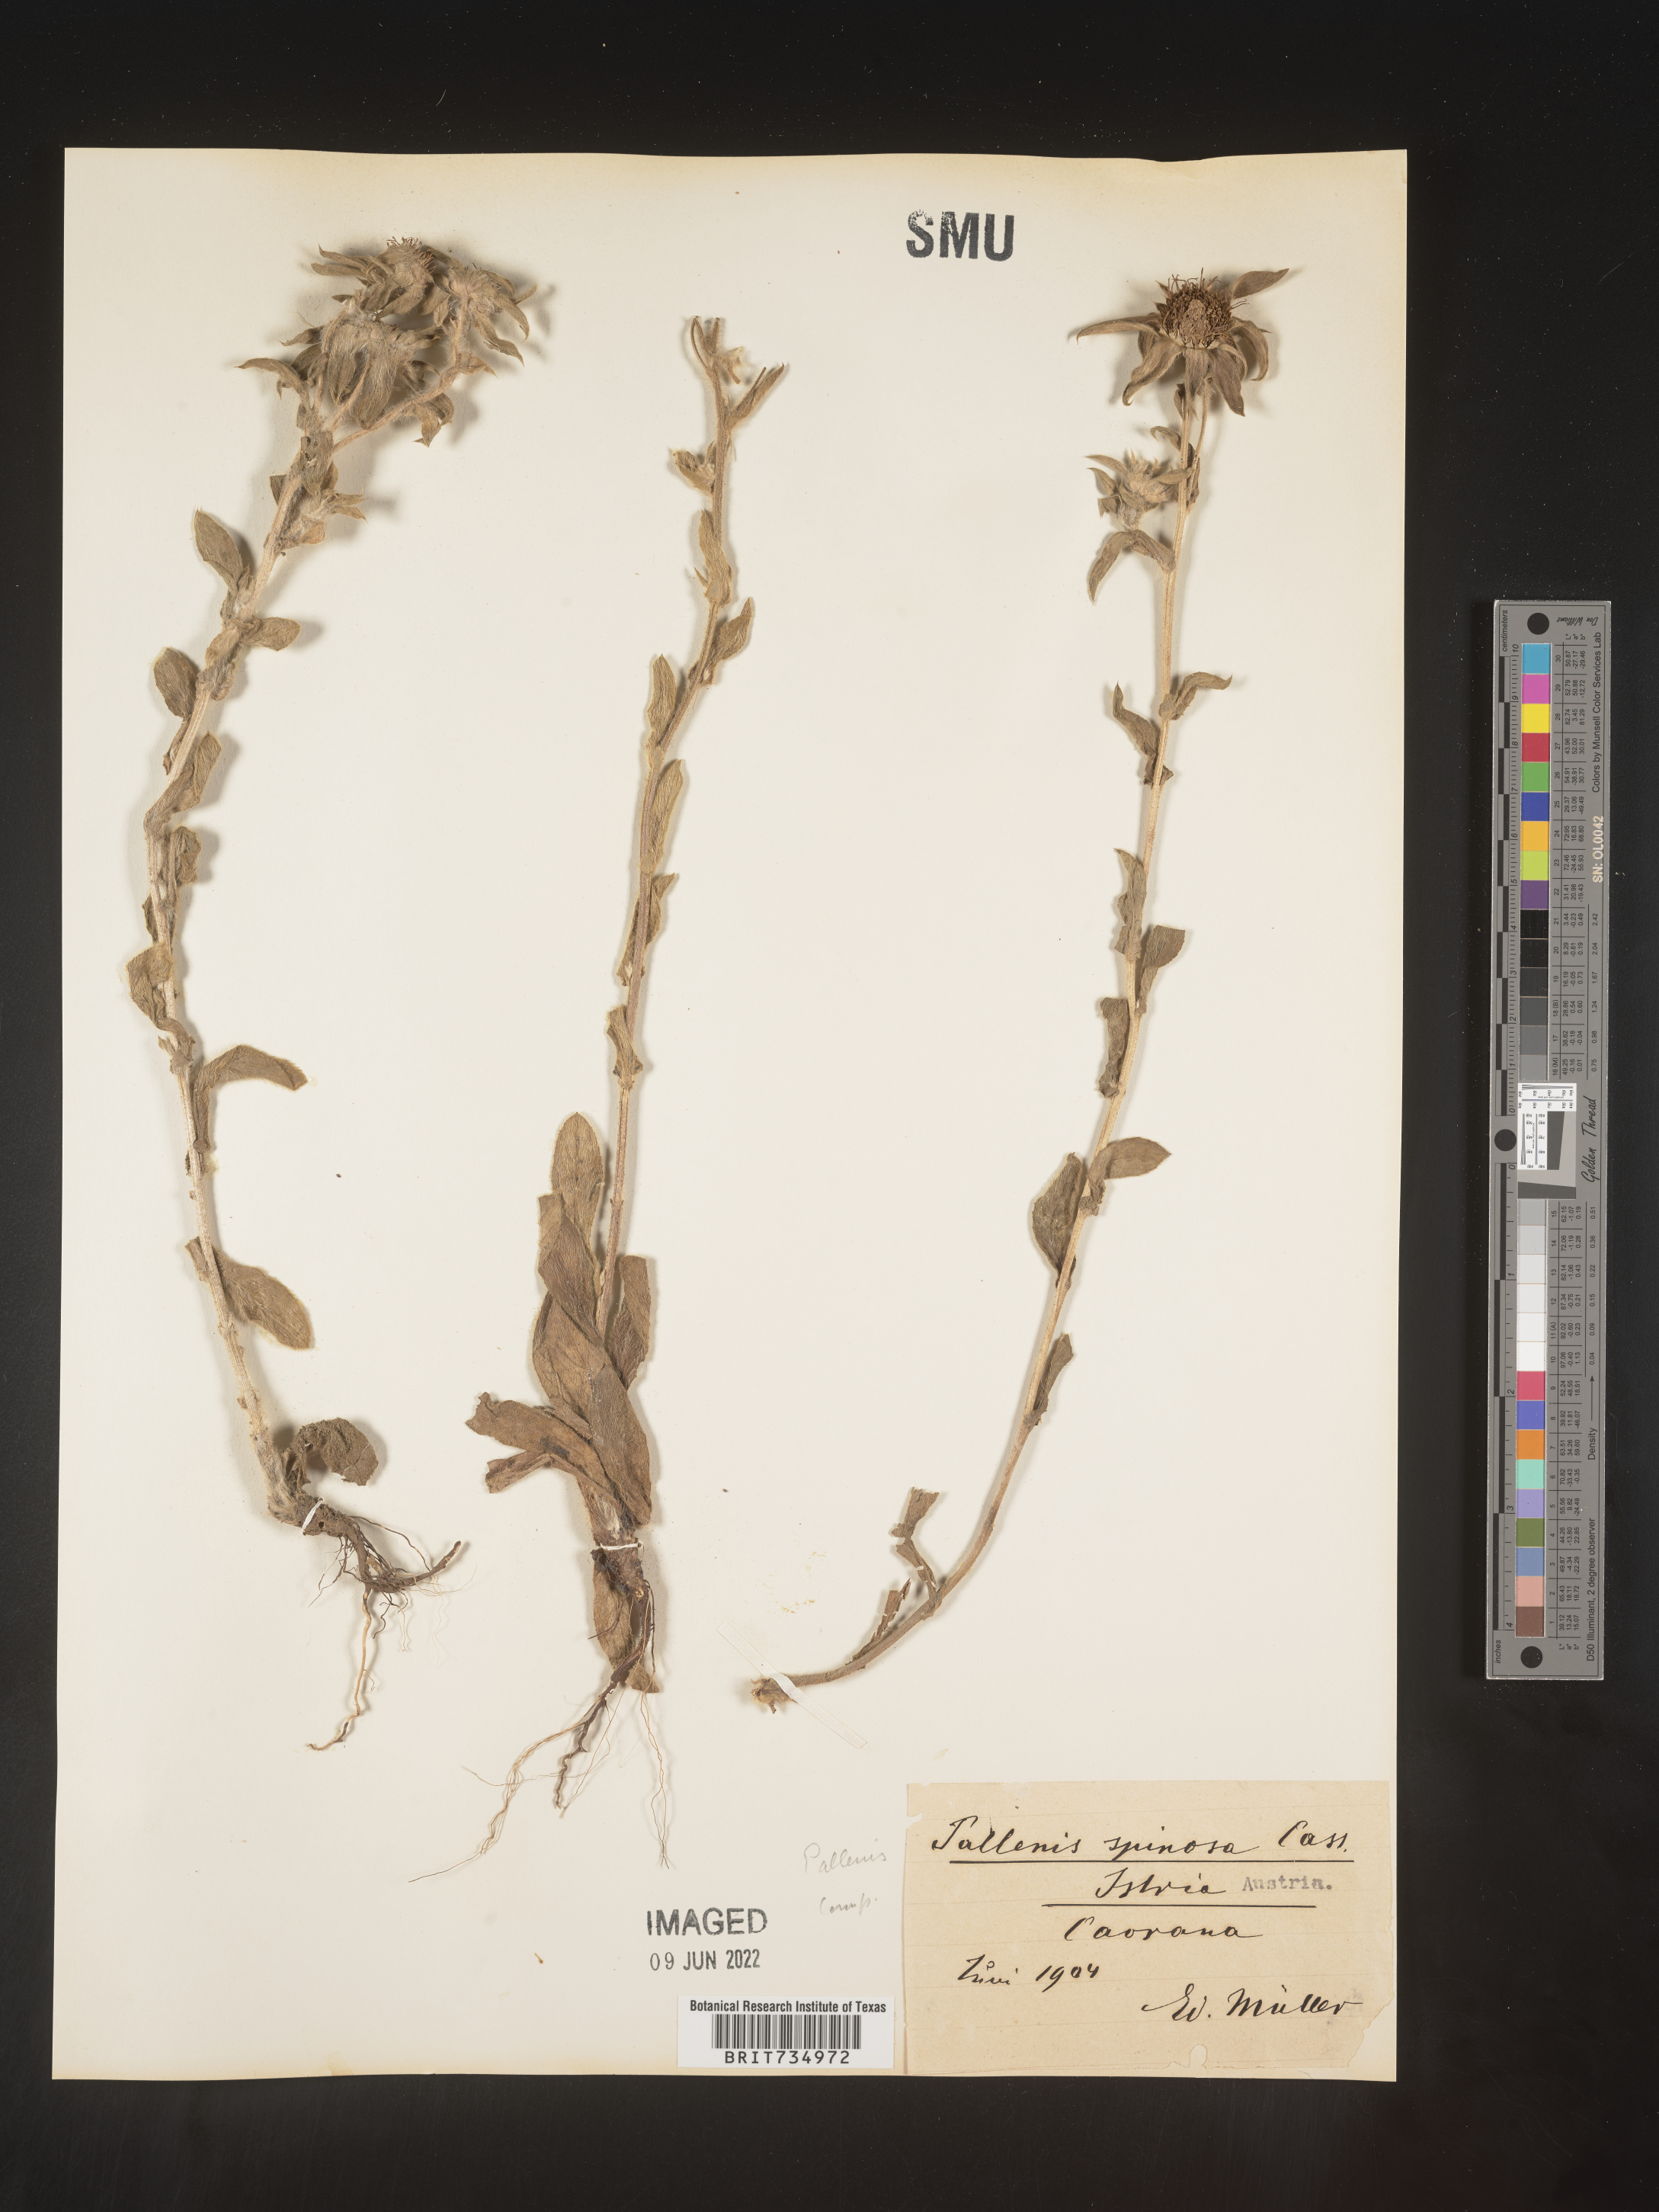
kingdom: Plantae
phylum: Tracheophyta
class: Magnoliopsida
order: Asterales
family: Asteraceae
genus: Pallenis
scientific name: Pallenis
